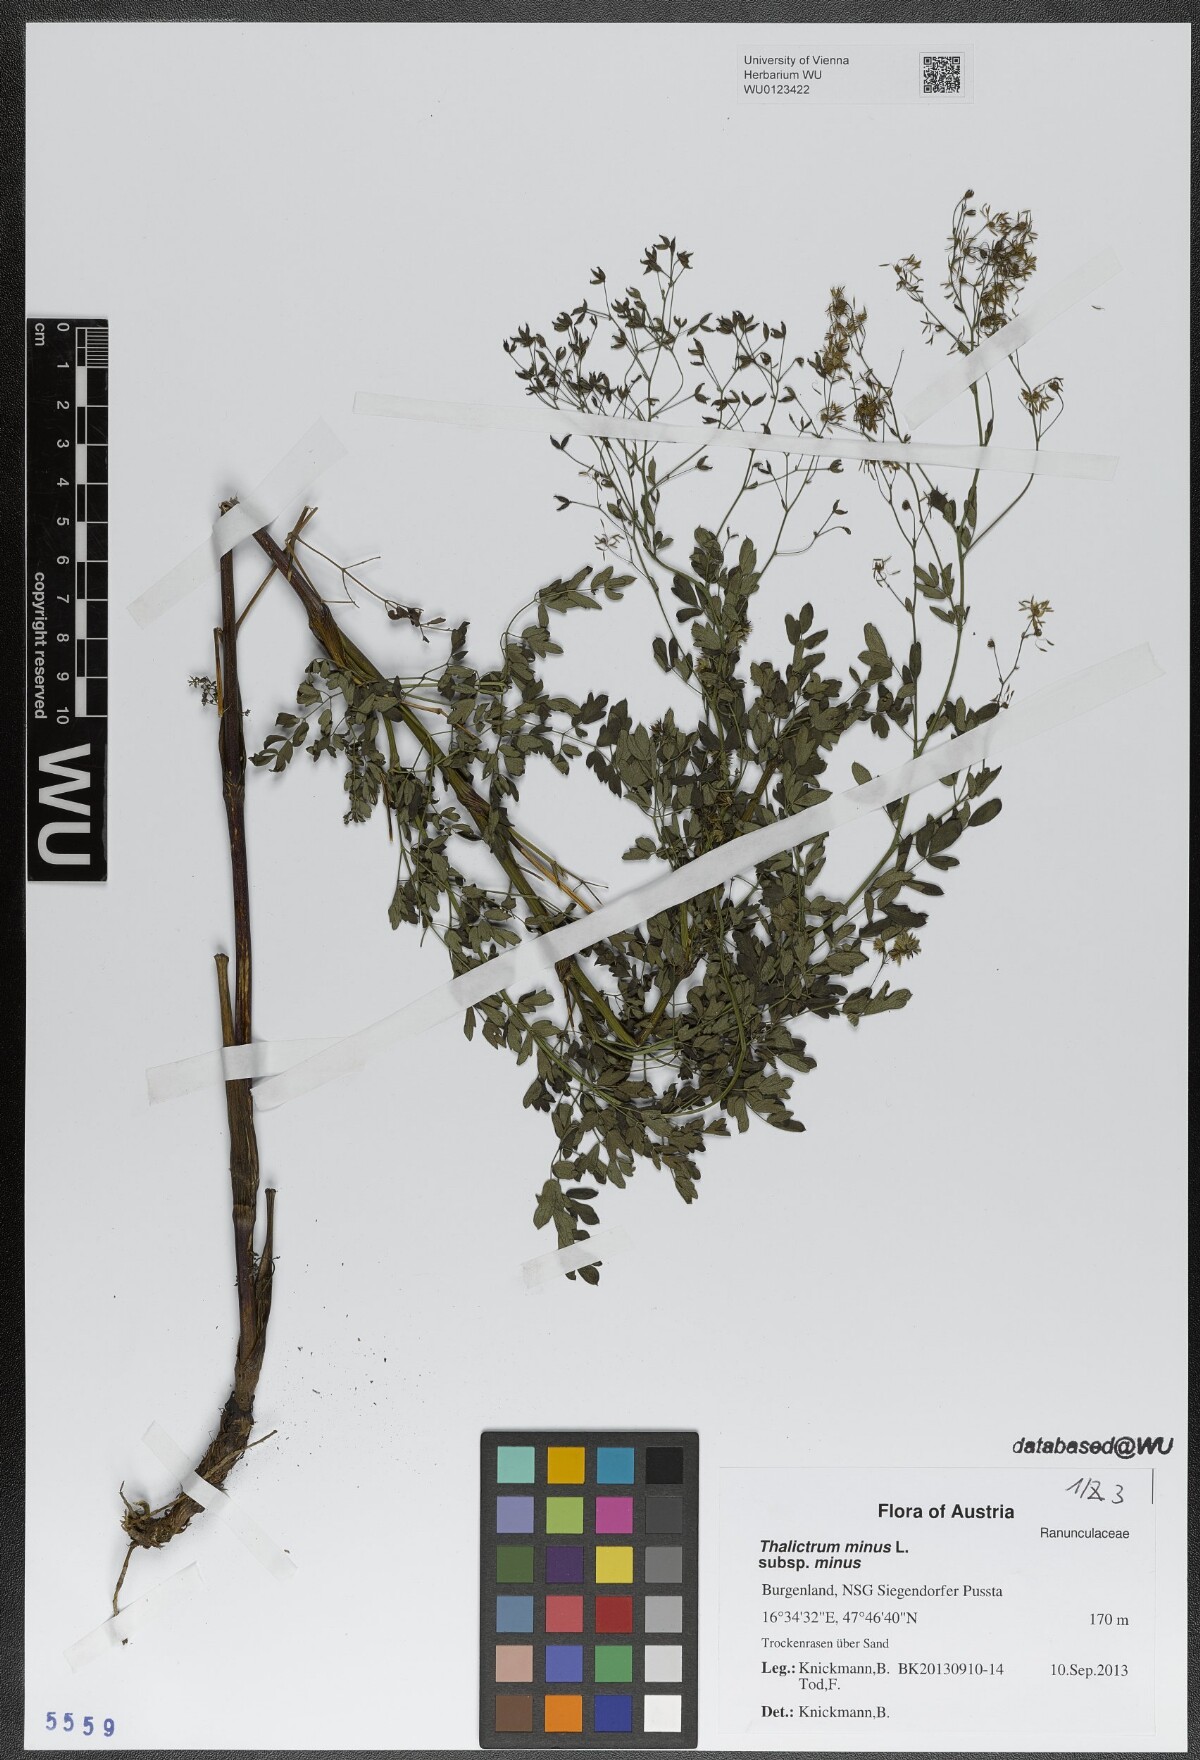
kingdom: Plantae
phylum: Tracheophyta
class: Magnoliopsida
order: Ranunculales
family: Ranunculaceae
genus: Thalictrum
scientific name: Thalictrum minus
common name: Lesser meadow-rue
